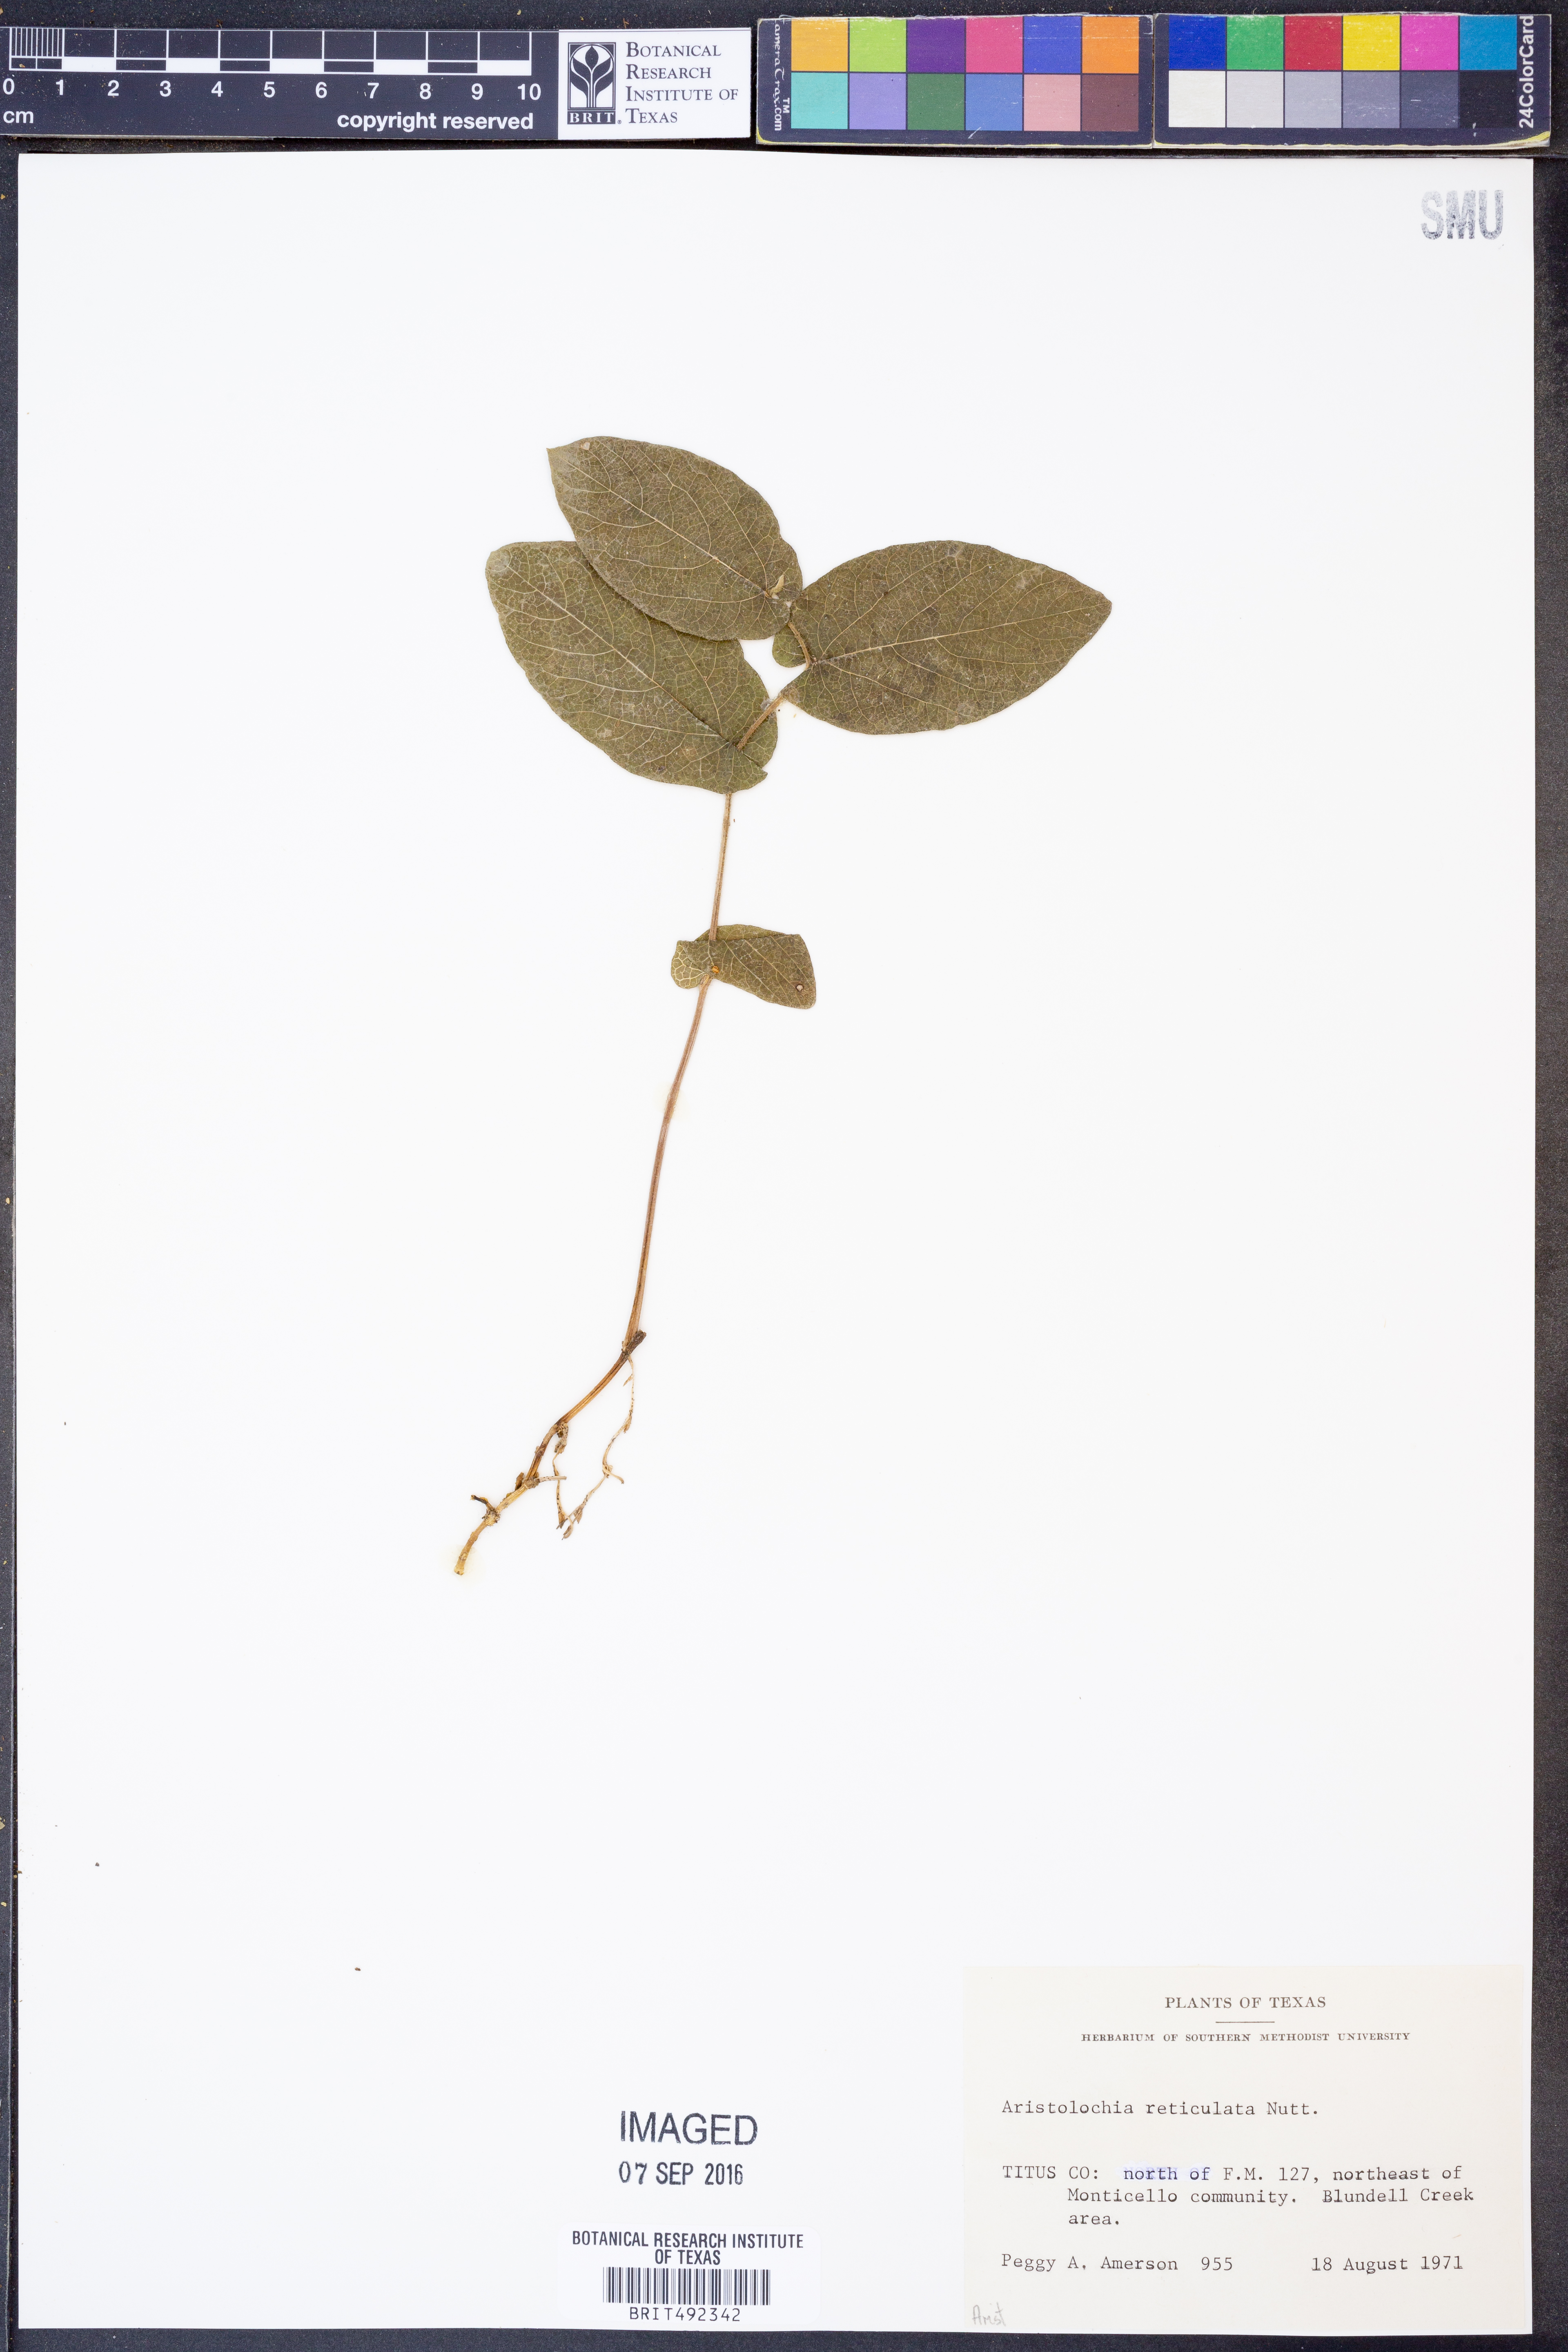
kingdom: Plantae
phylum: Tracheophyta
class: Magnoliopsida
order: Piperales
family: Aristolochiaceae
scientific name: Aristolochiaceae
